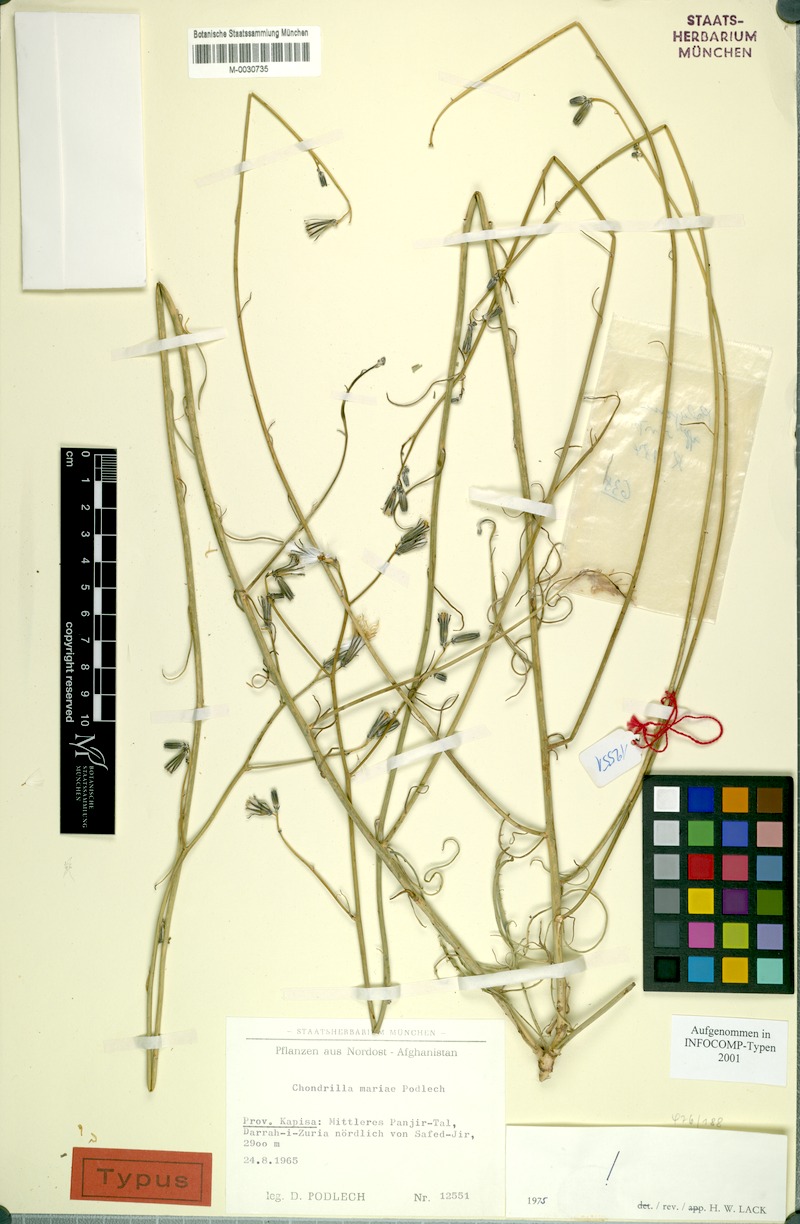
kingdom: Plantae
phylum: Tracheophyta
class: Magnoliopsida
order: Asterales
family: Asteraceae
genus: Chondrilla
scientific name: Chondrilla mariae
